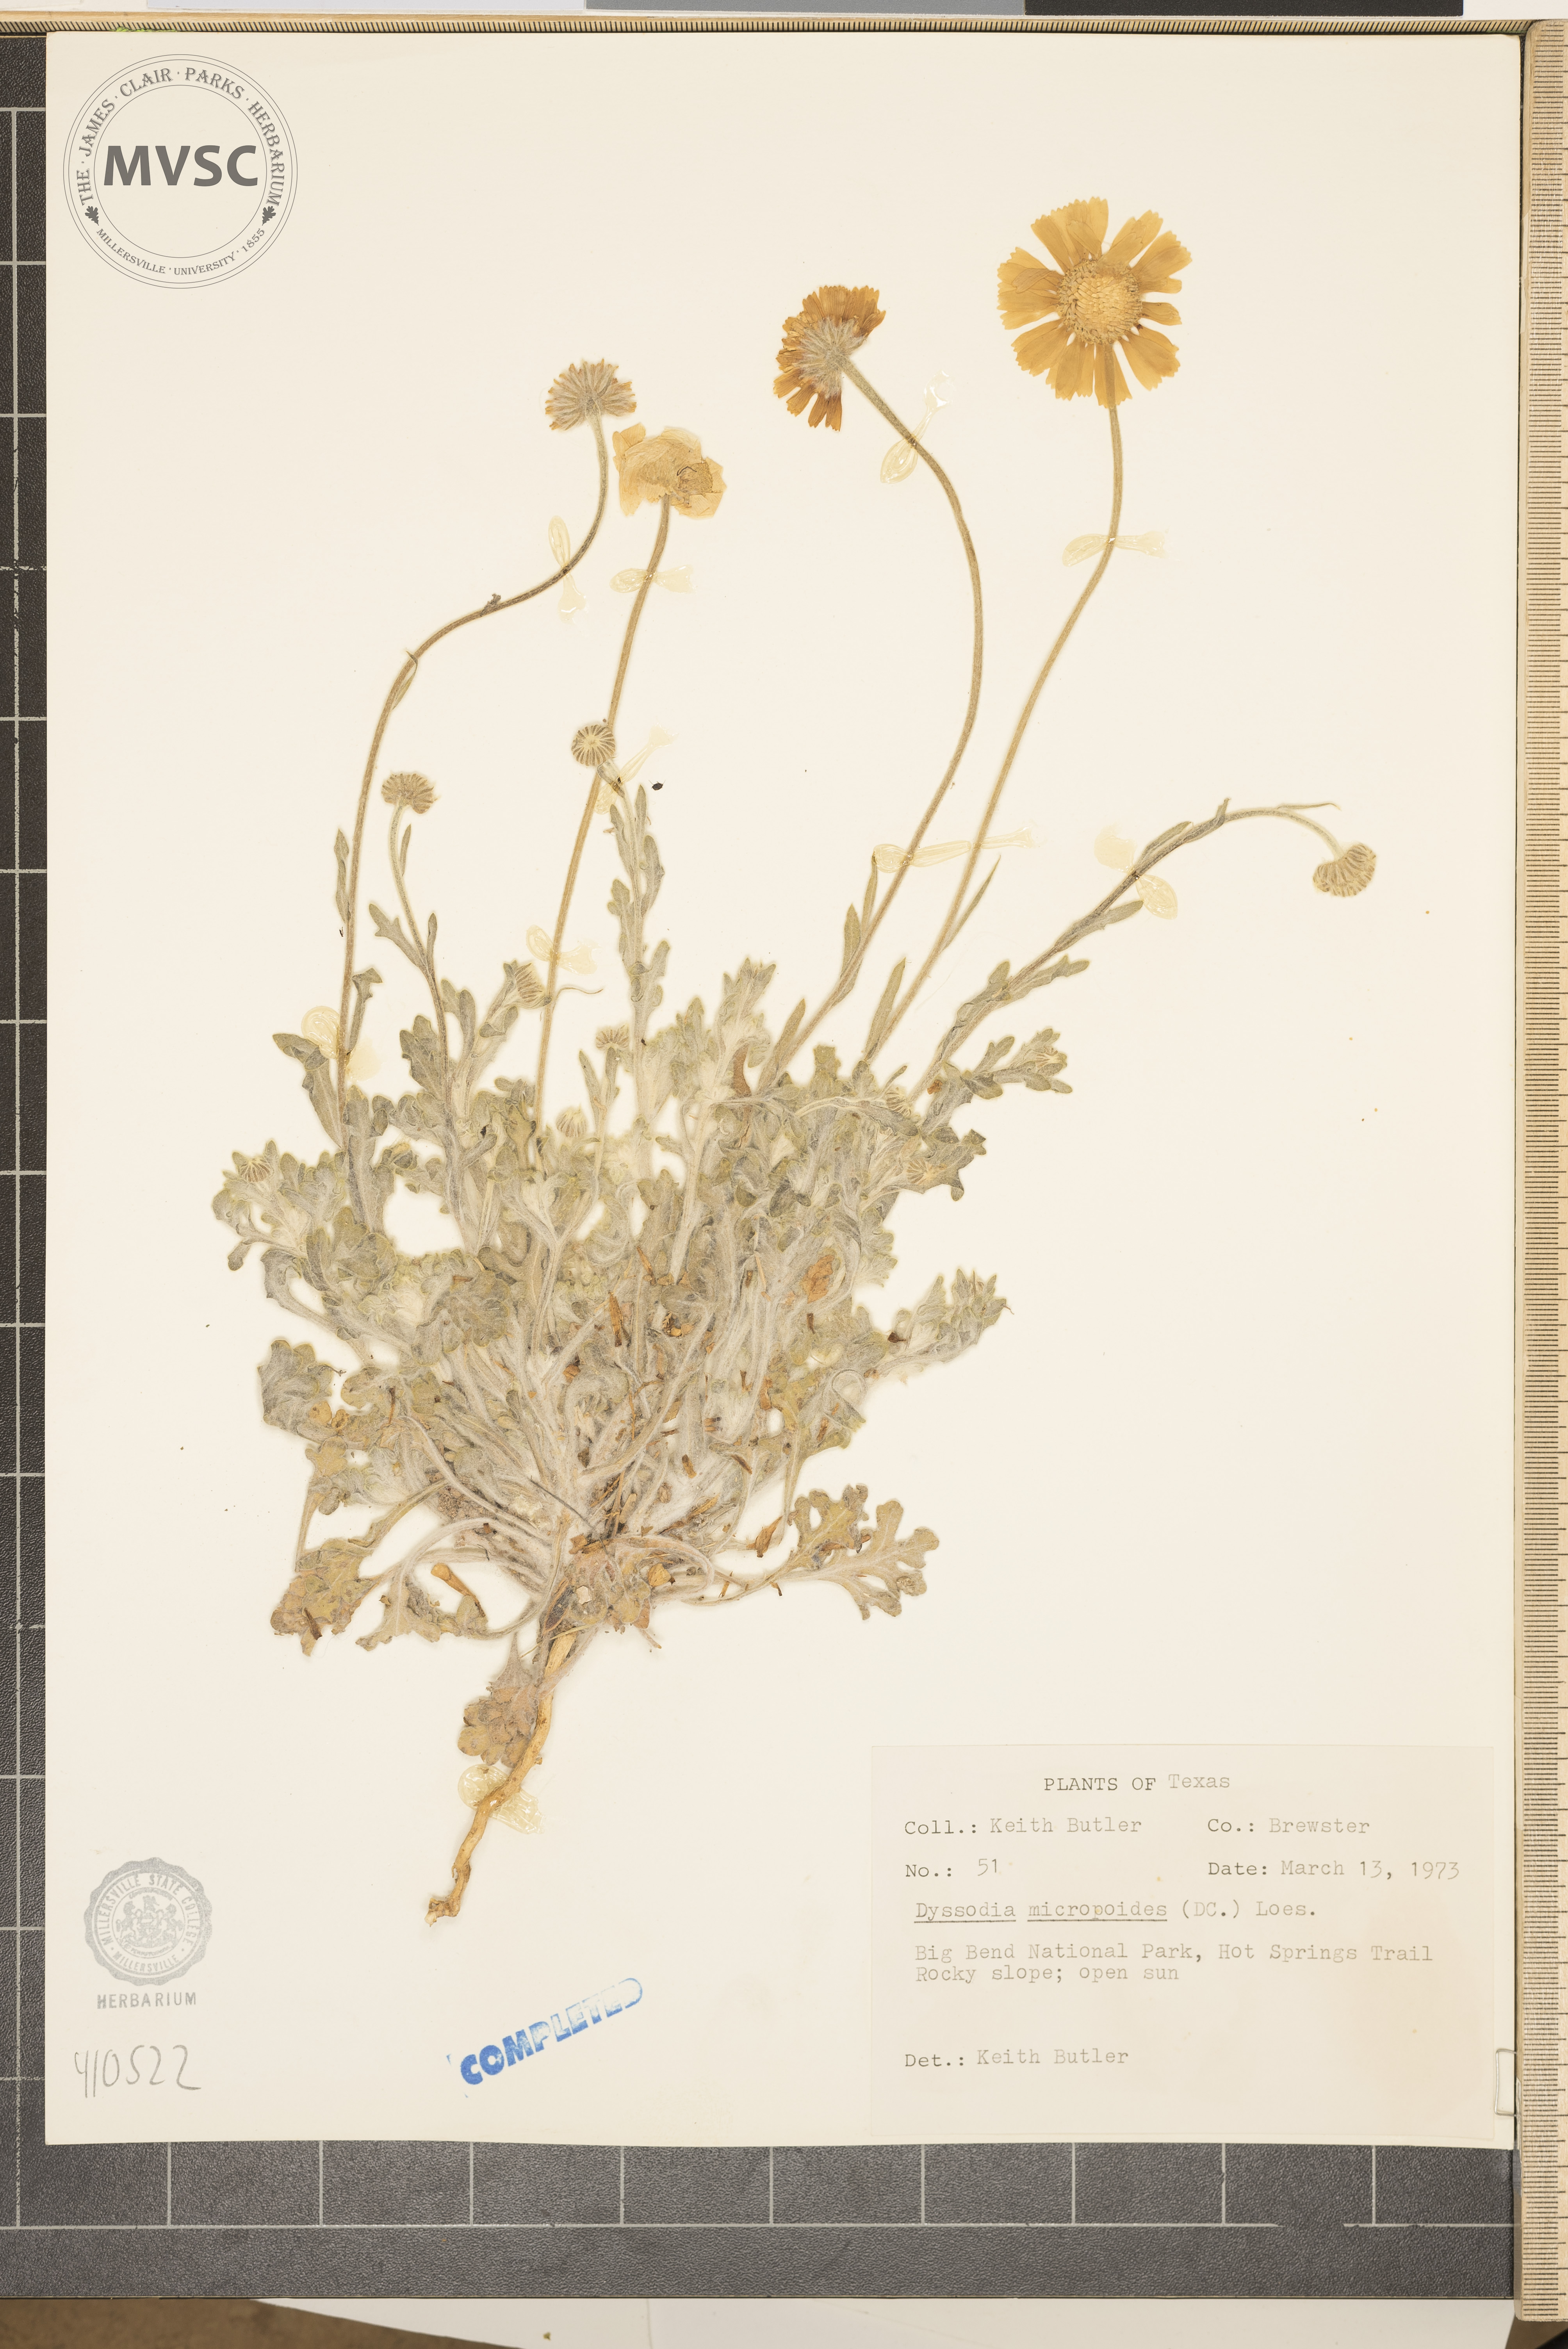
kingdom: Plantae
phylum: Tracheophyta
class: Magnoliopsida
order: Asterales
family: Asteraceae
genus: Thymophylla
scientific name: Thymophylla micropoides
